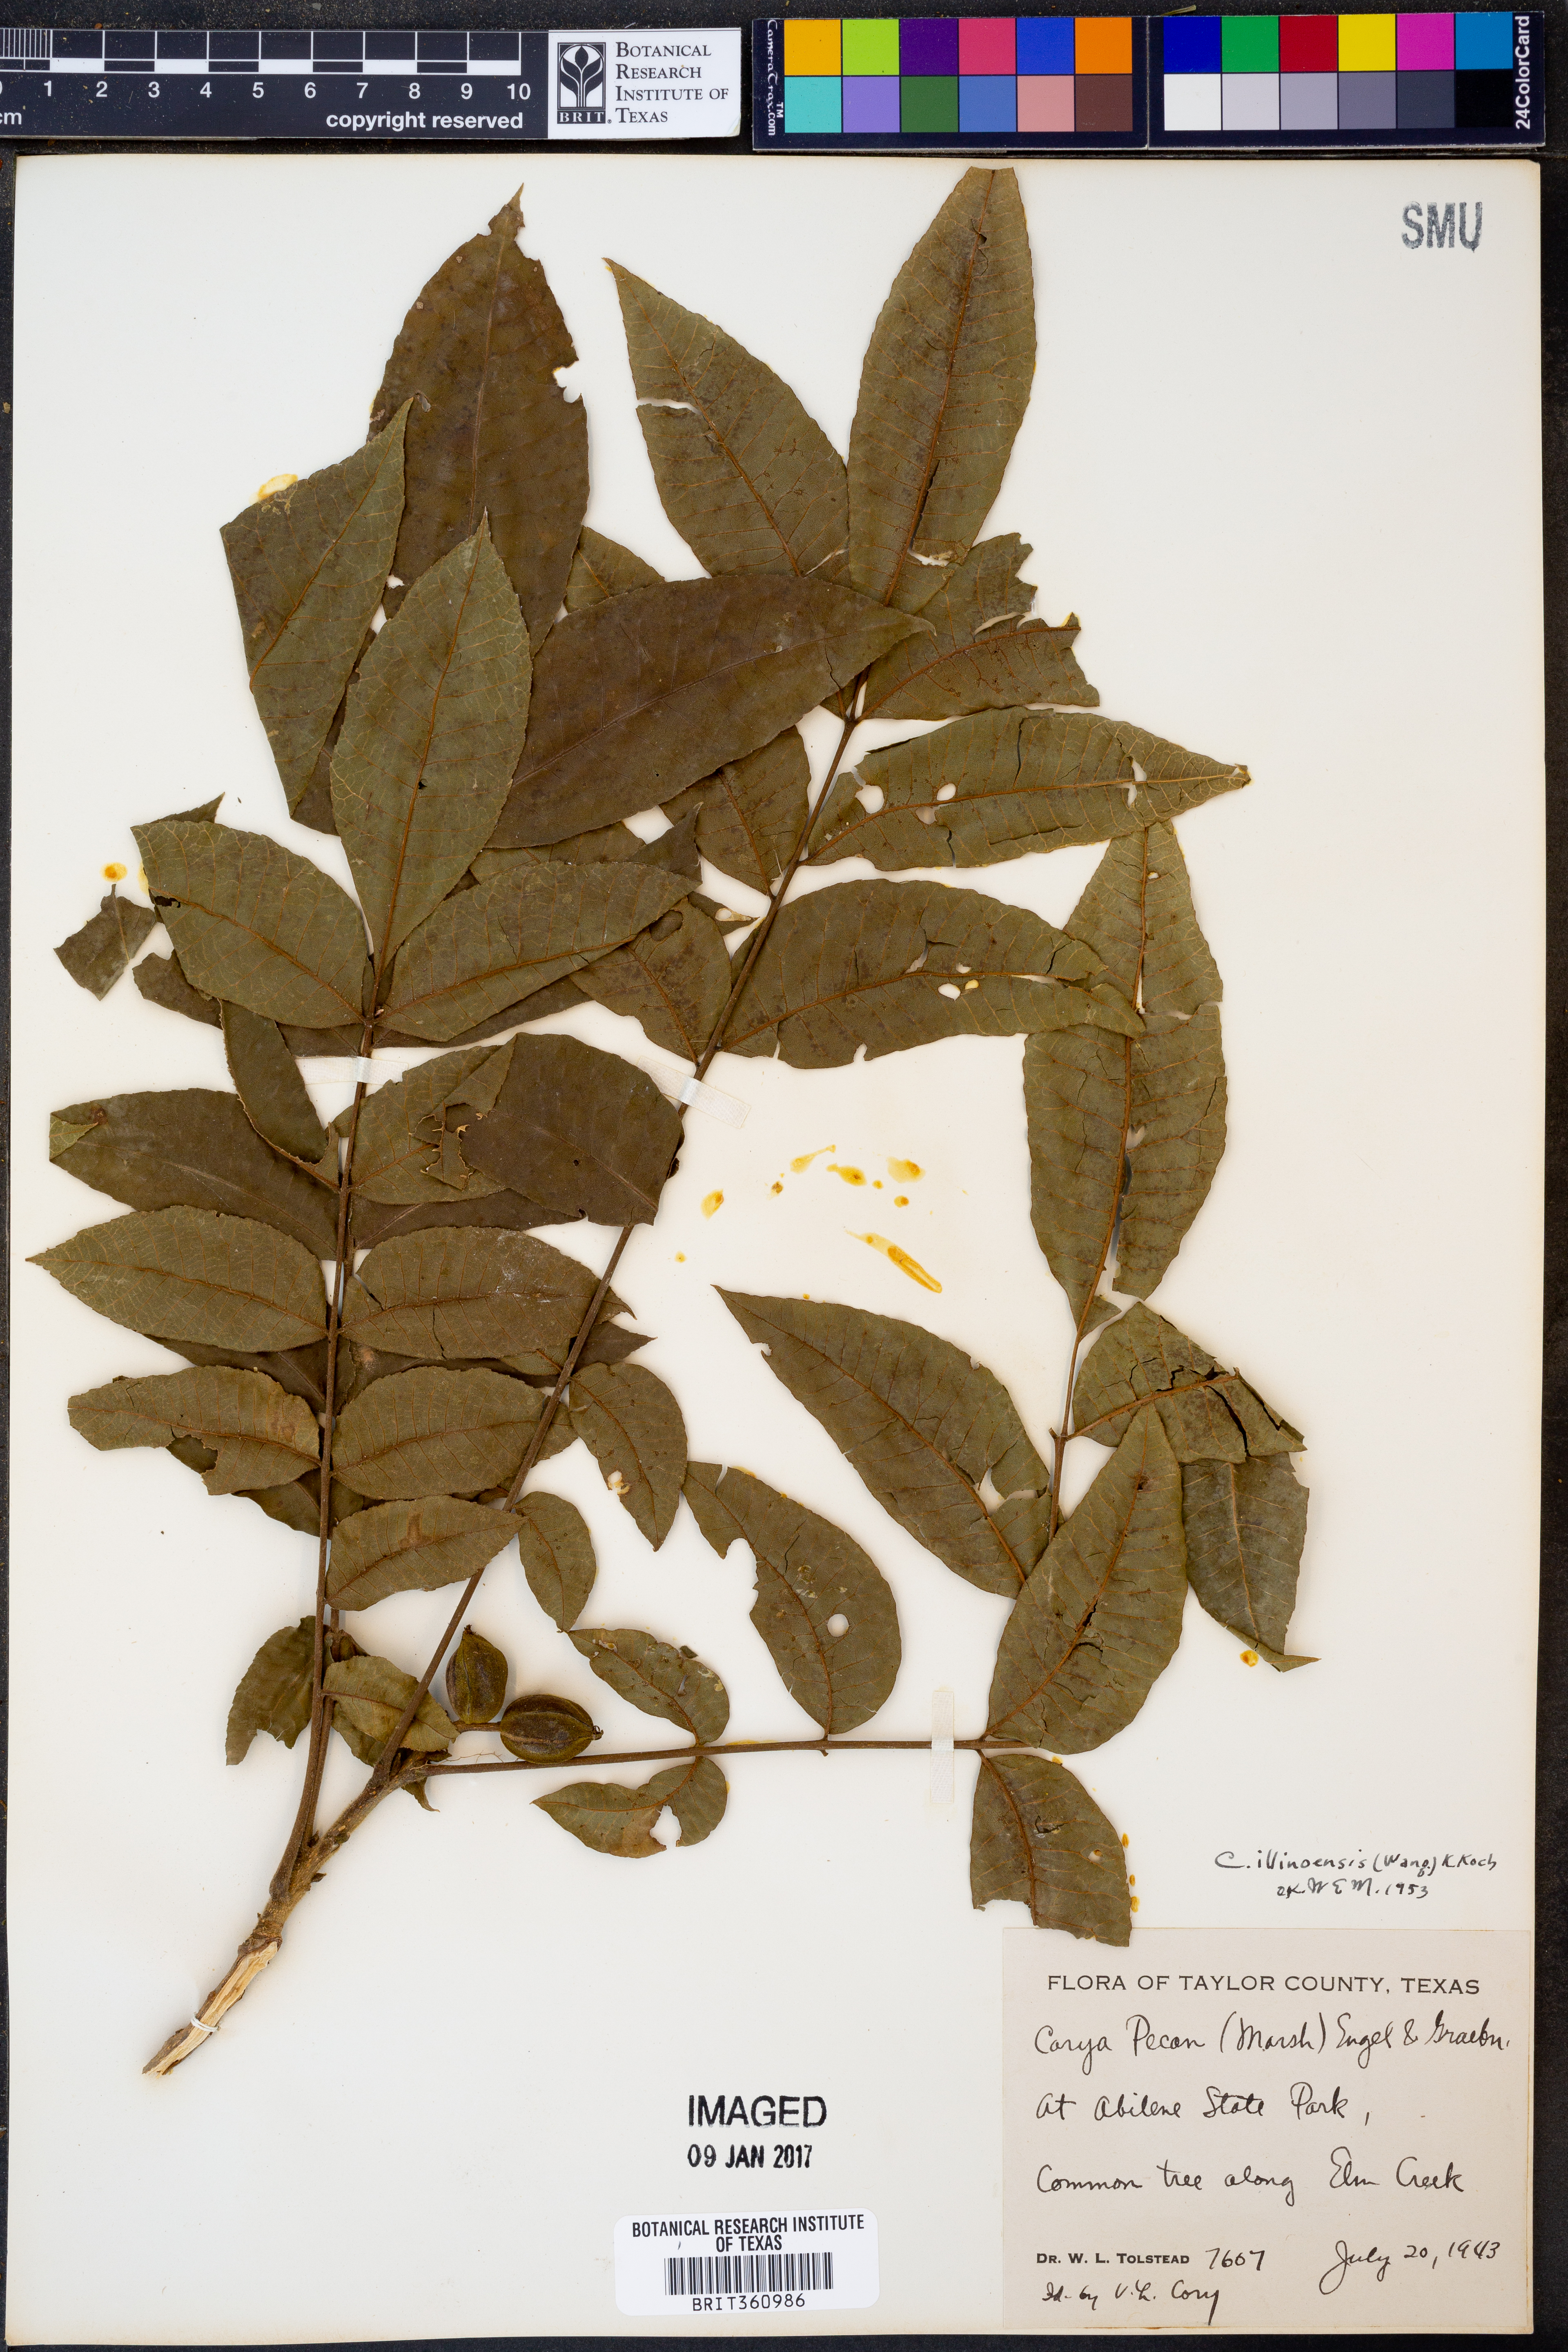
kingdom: Plantae
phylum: Tracheophyta
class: Magnoliopsida
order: Fagales
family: Juglandaceae
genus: Carya
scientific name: Carya illinoinensis
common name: Pecan
